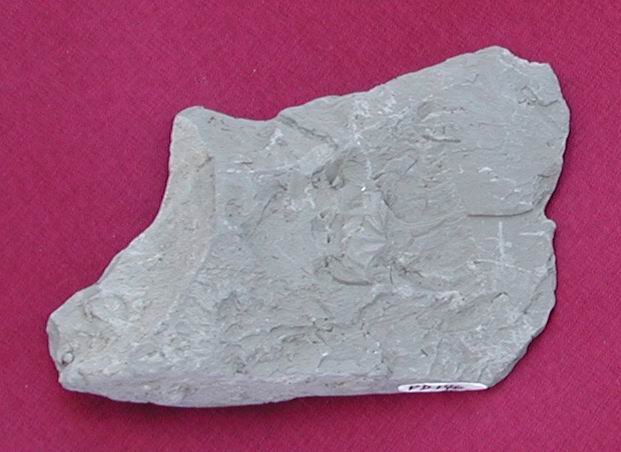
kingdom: Animalia
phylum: Mollusca
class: Cephalopoda
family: Amaltheidae
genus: Amaltheus
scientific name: Amaltheus bifurcus
